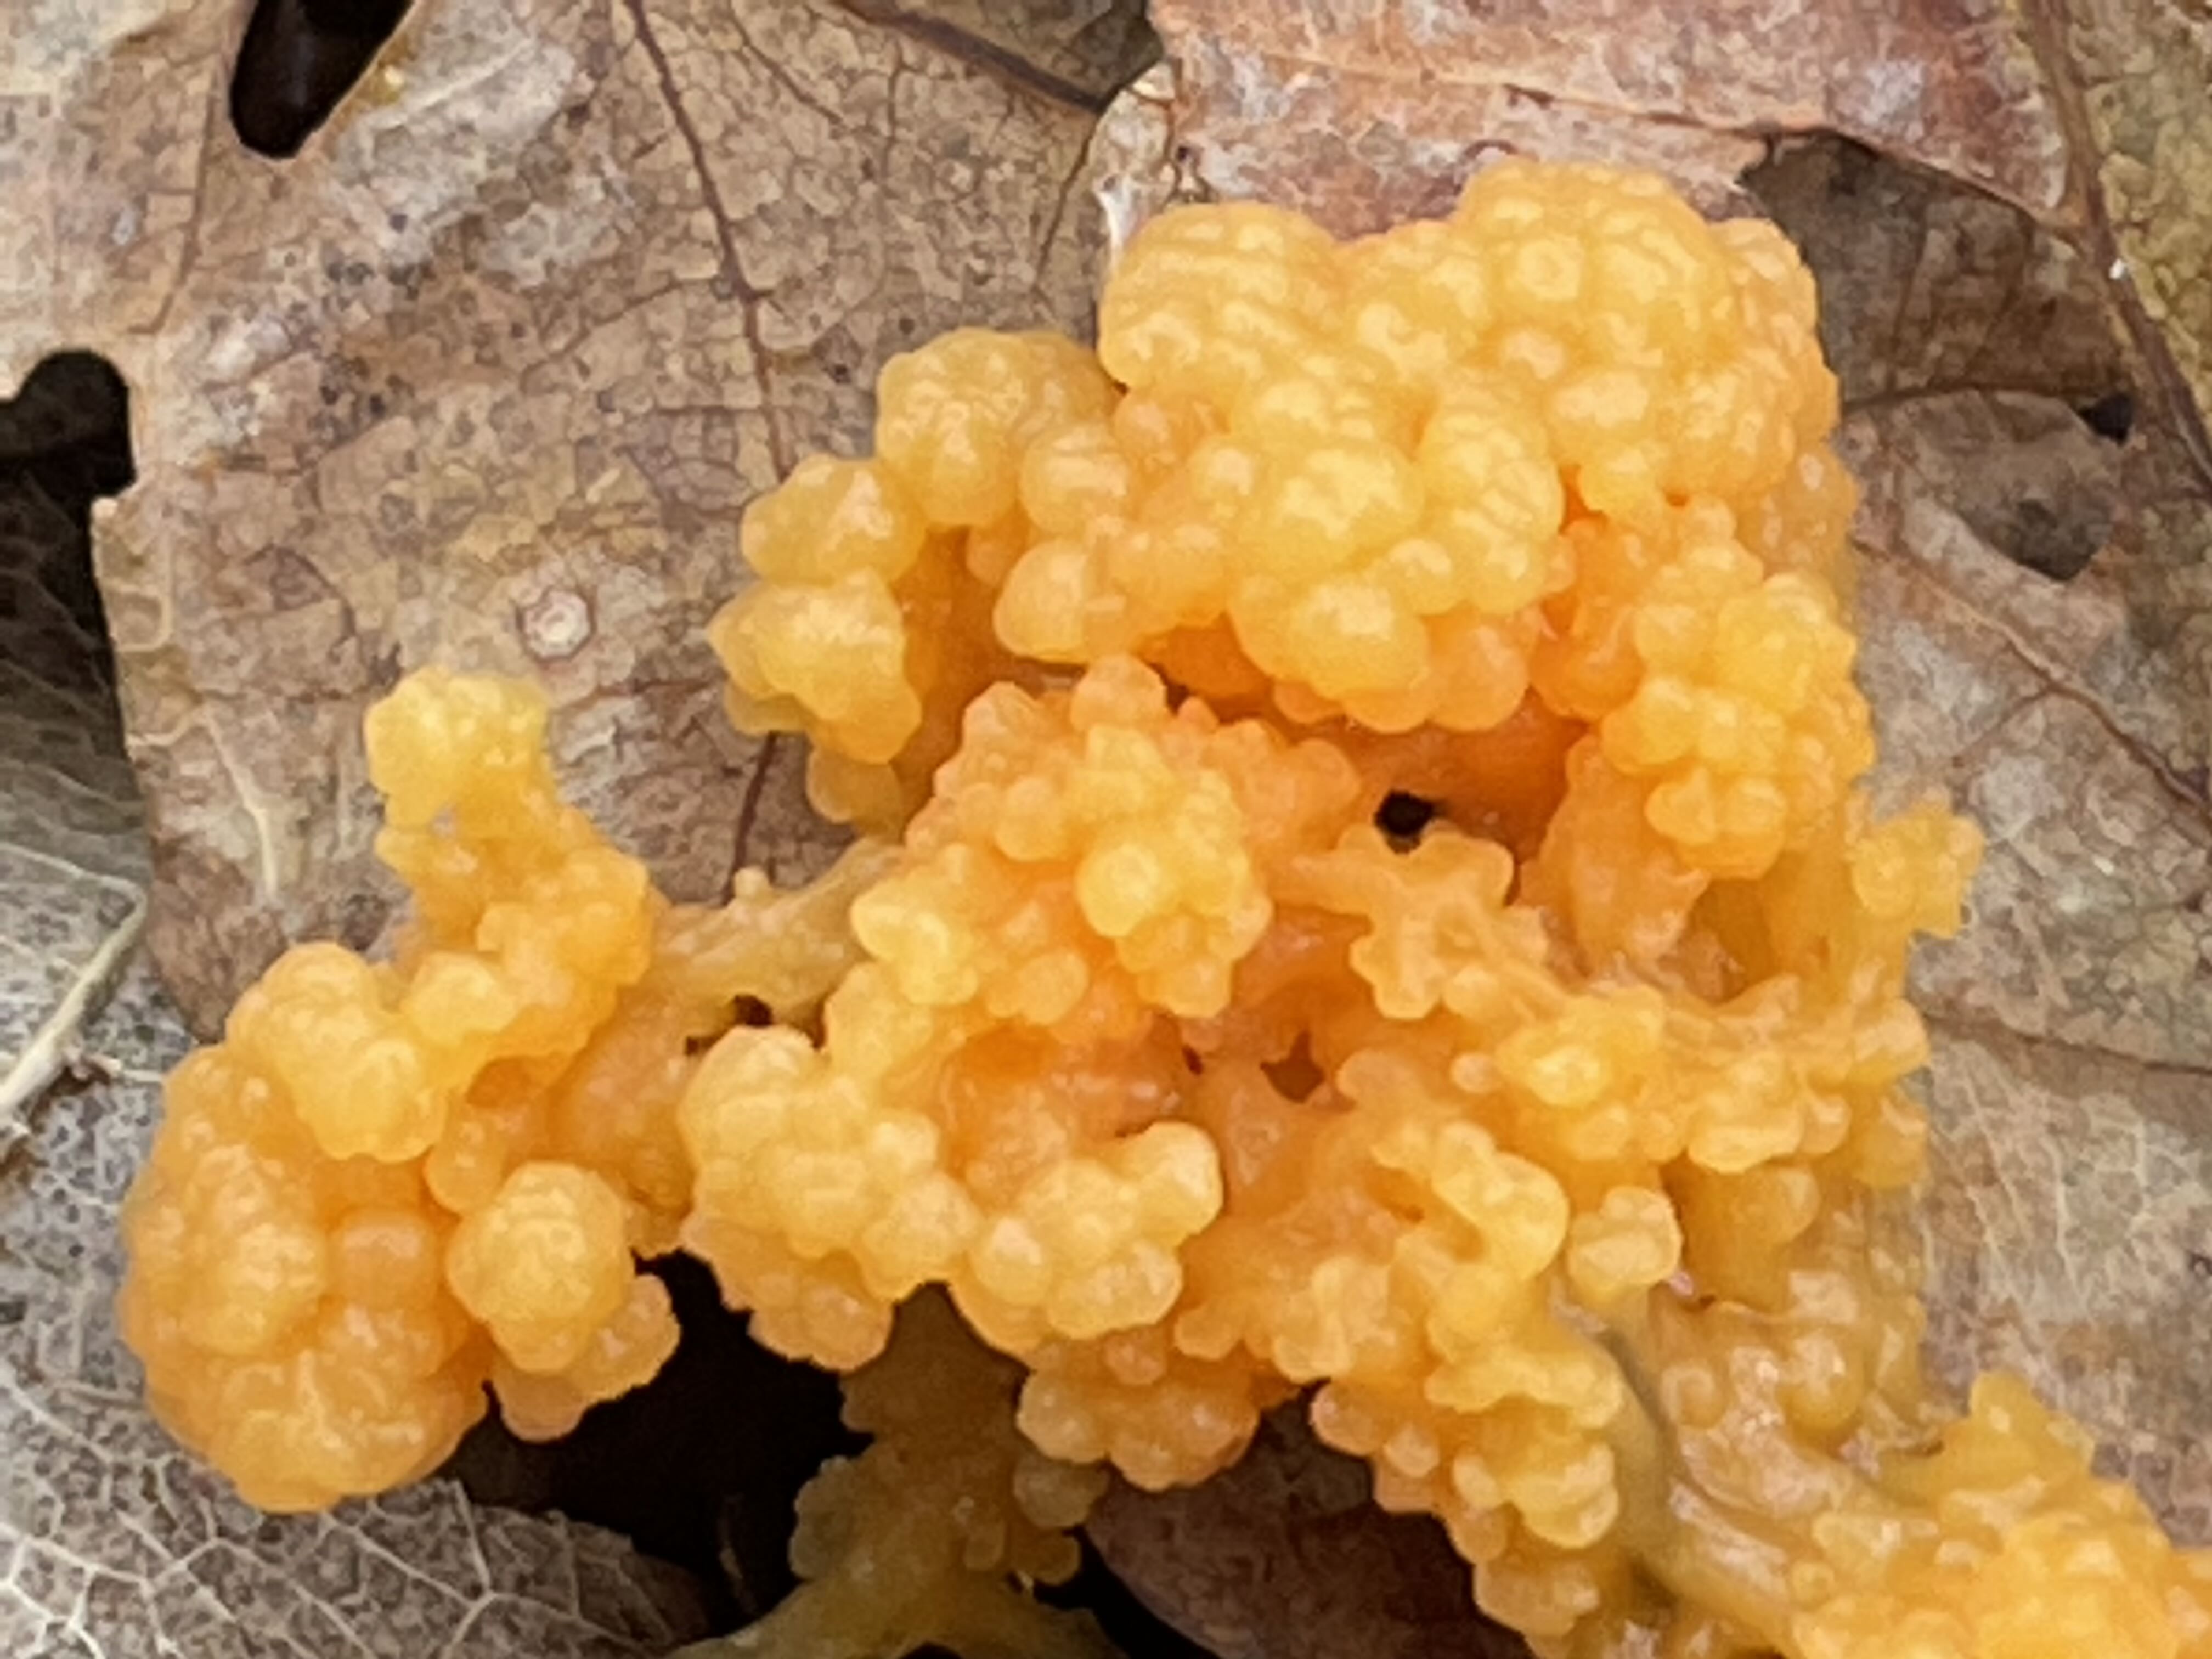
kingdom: Protozoa
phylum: Mycetozoa
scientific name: Mycetozoa
